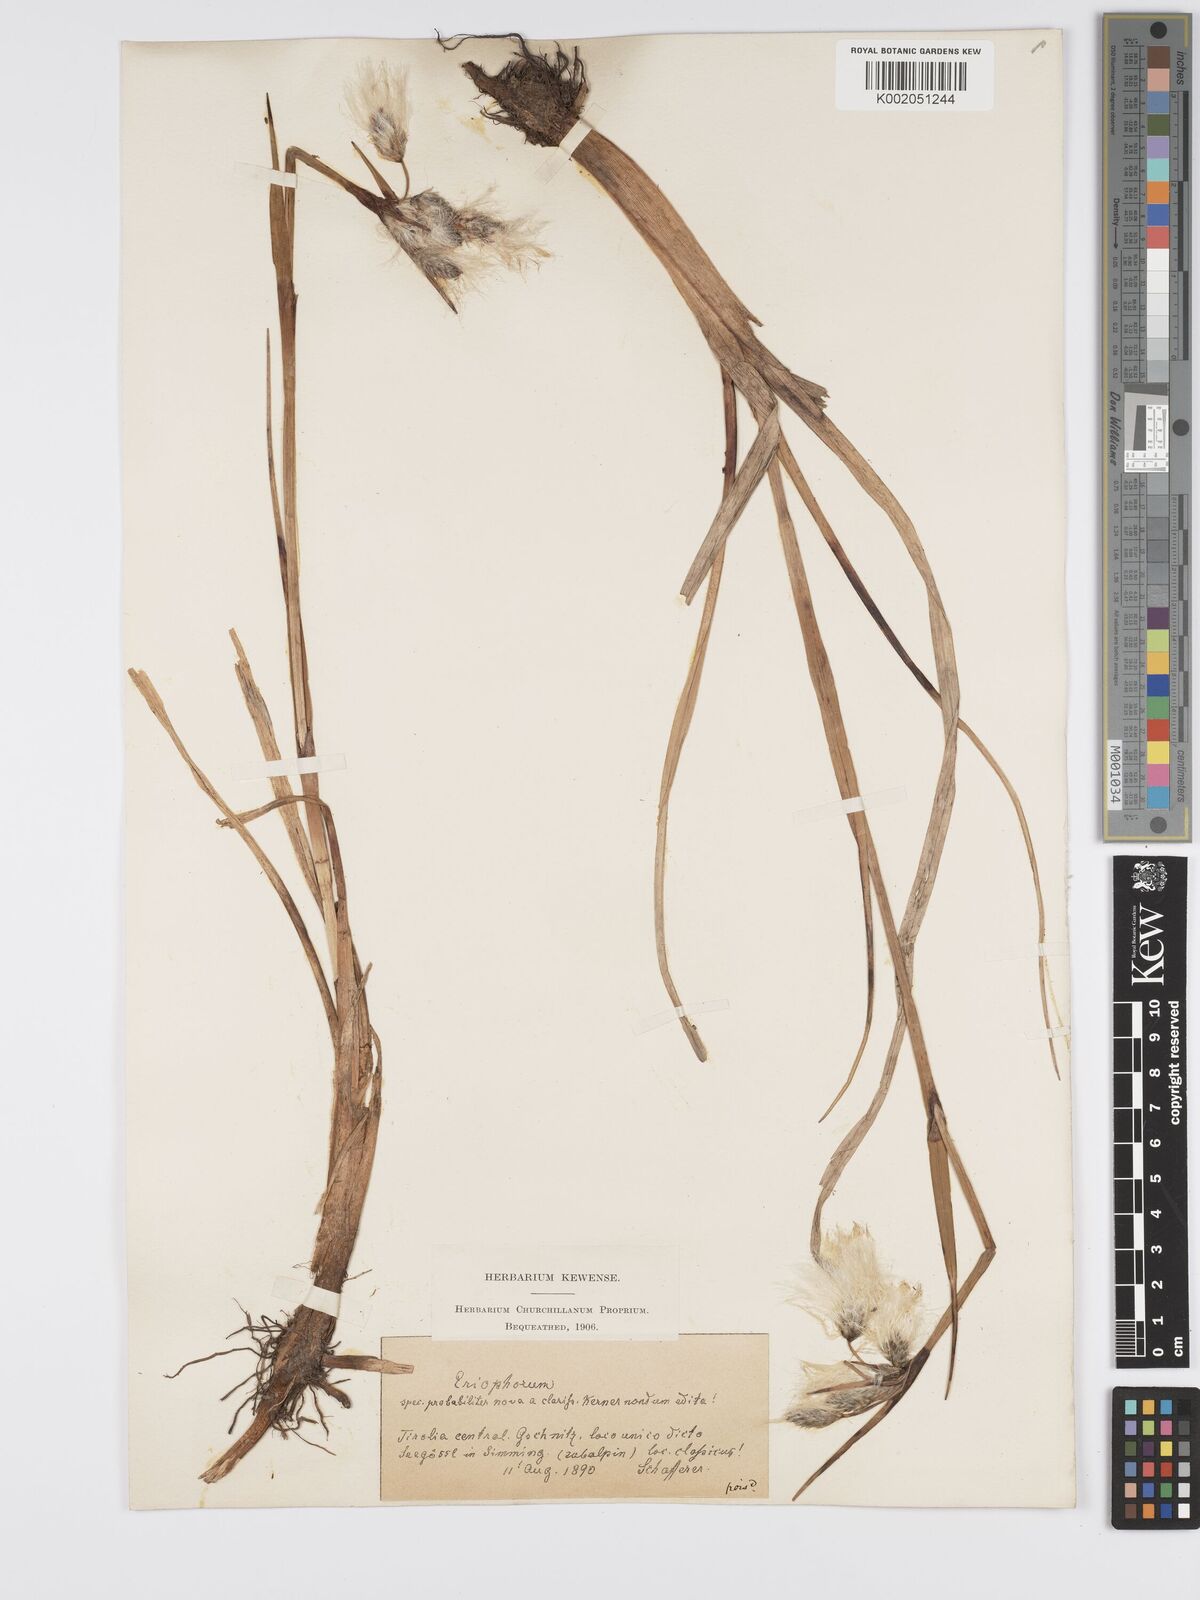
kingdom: Plantae
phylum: Tracheophyta
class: Liliopsida
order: Poales
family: Cyperaceae
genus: Eriophorum
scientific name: Eriophorum latifolium
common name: Broad-leaved cottongrass
